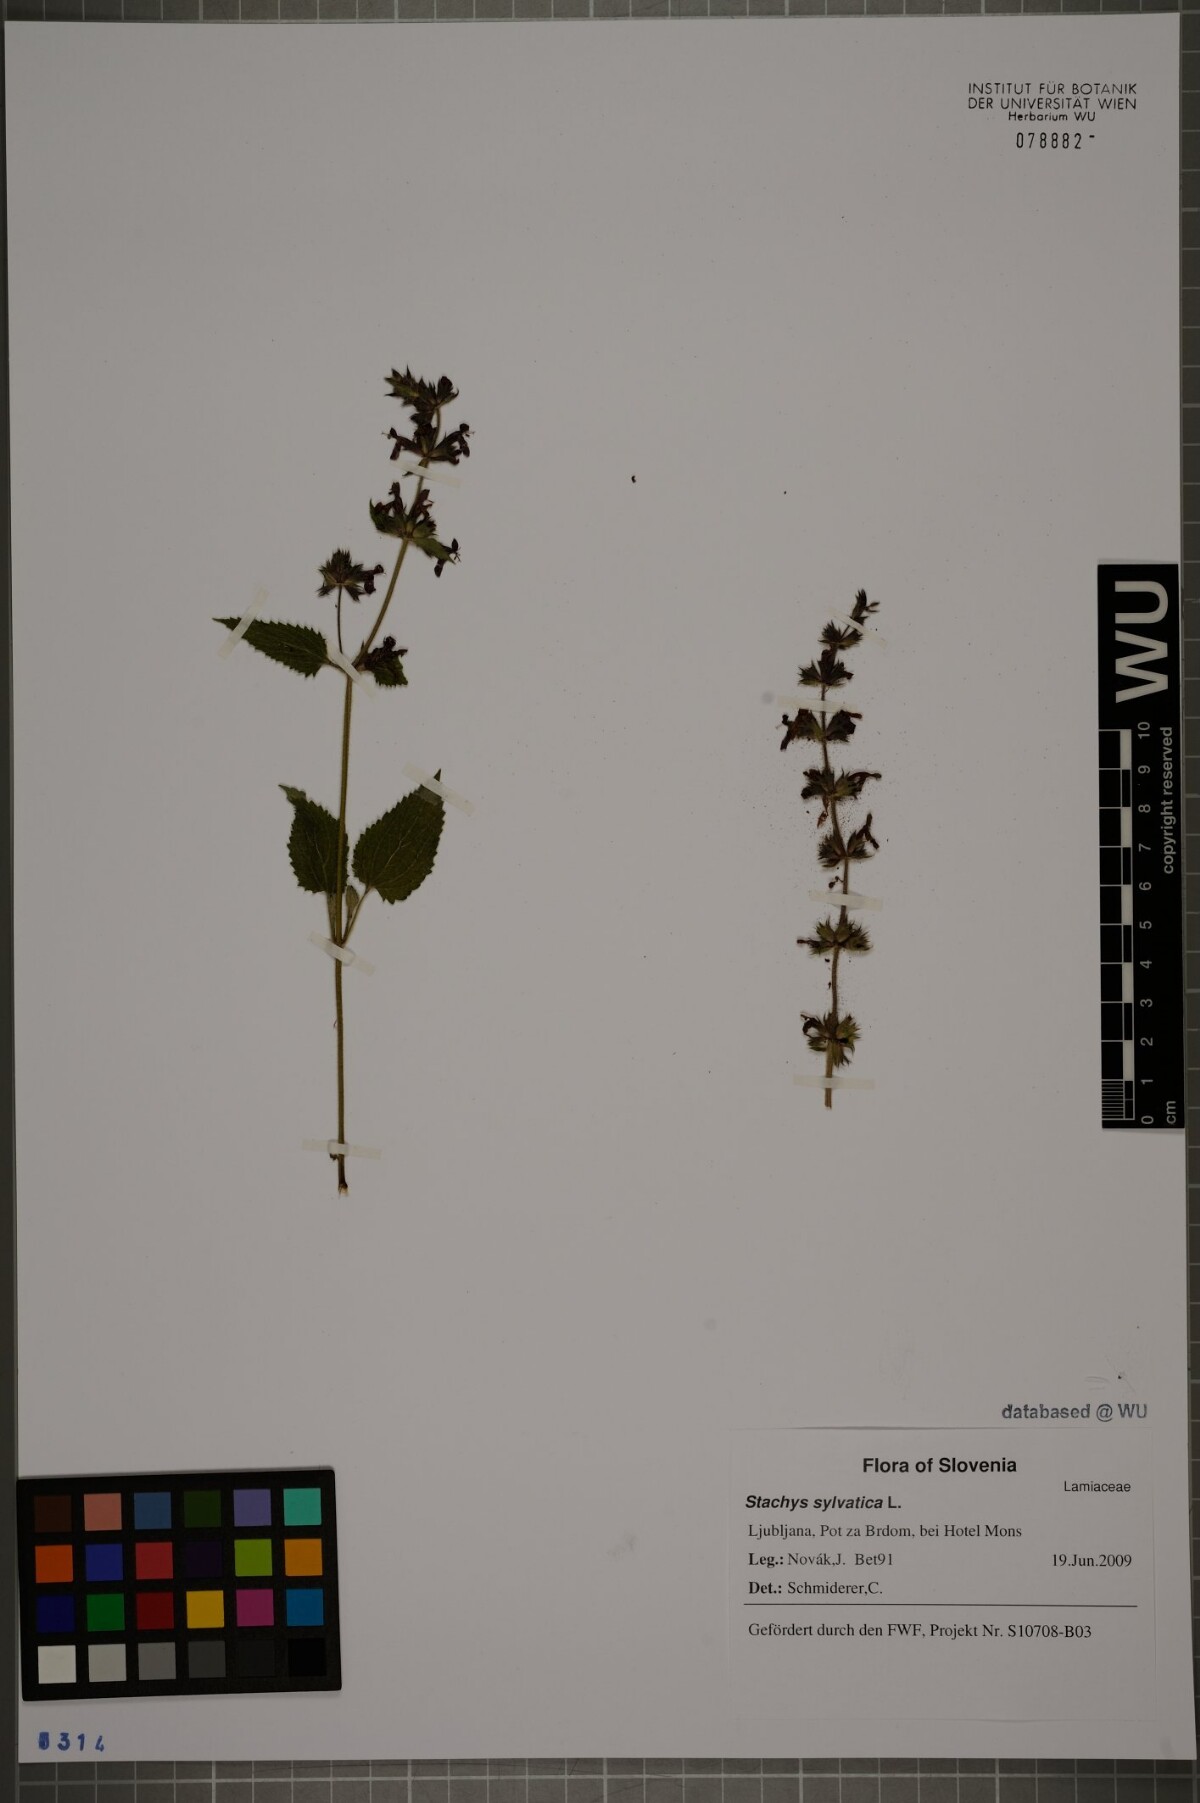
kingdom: Plantae
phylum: Tracheophyta
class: Magnoliopsida
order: Lamiales
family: Lamiaceae
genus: Stachys
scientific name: Stachys sylvatica
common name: Hedge woundwort
